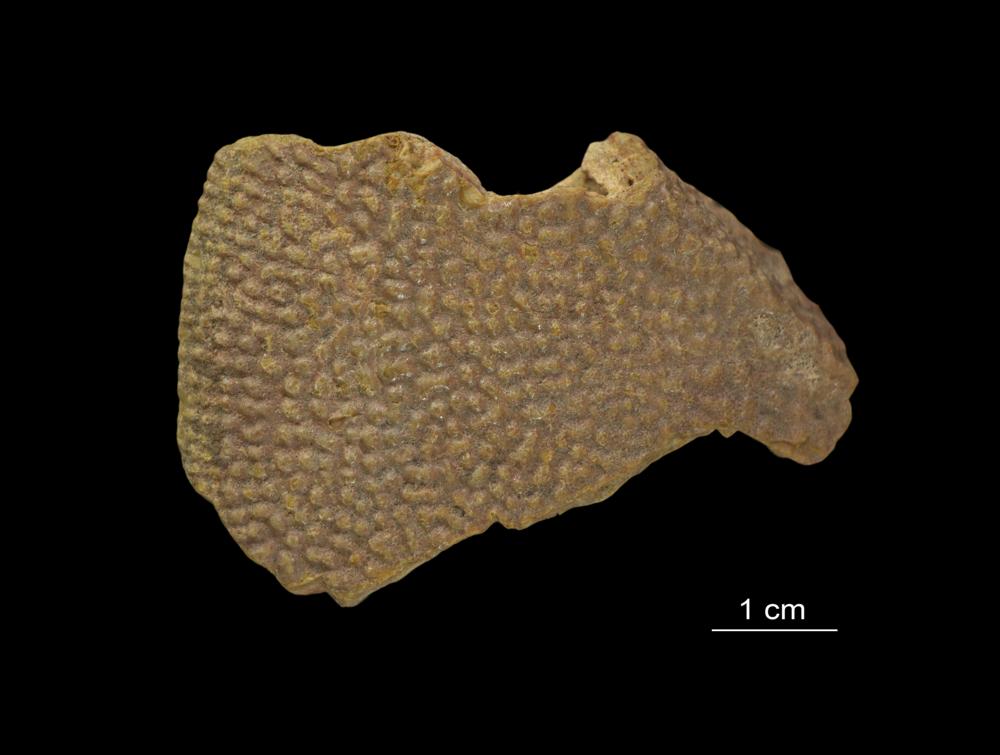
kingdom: Animalia
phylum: Chordata
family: Asterolepididae
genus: Asterolepis
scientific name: Asterolepis ornata
